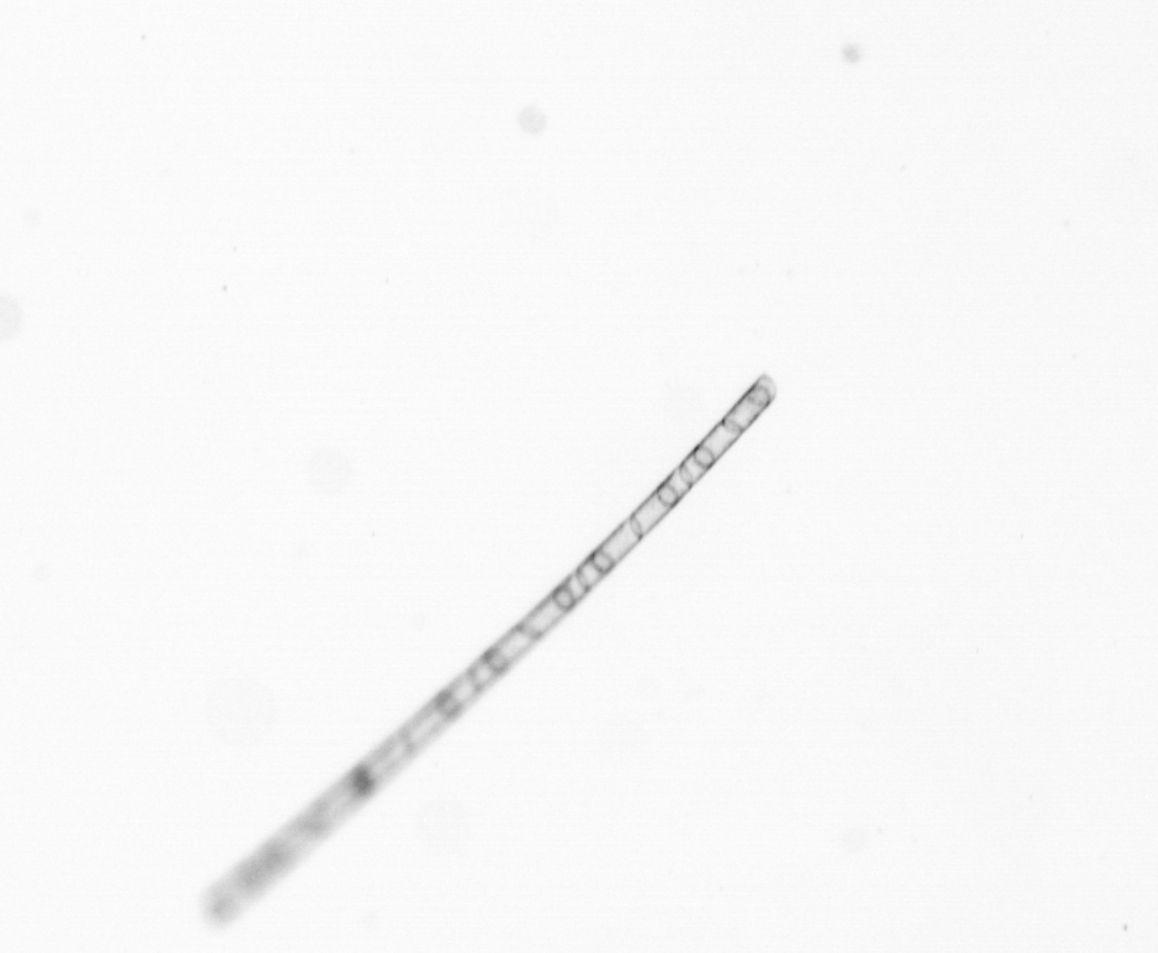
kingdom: Chromista
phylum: Ochrophyta
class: Bacillariophyceae
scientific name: Bacillariophyceae
